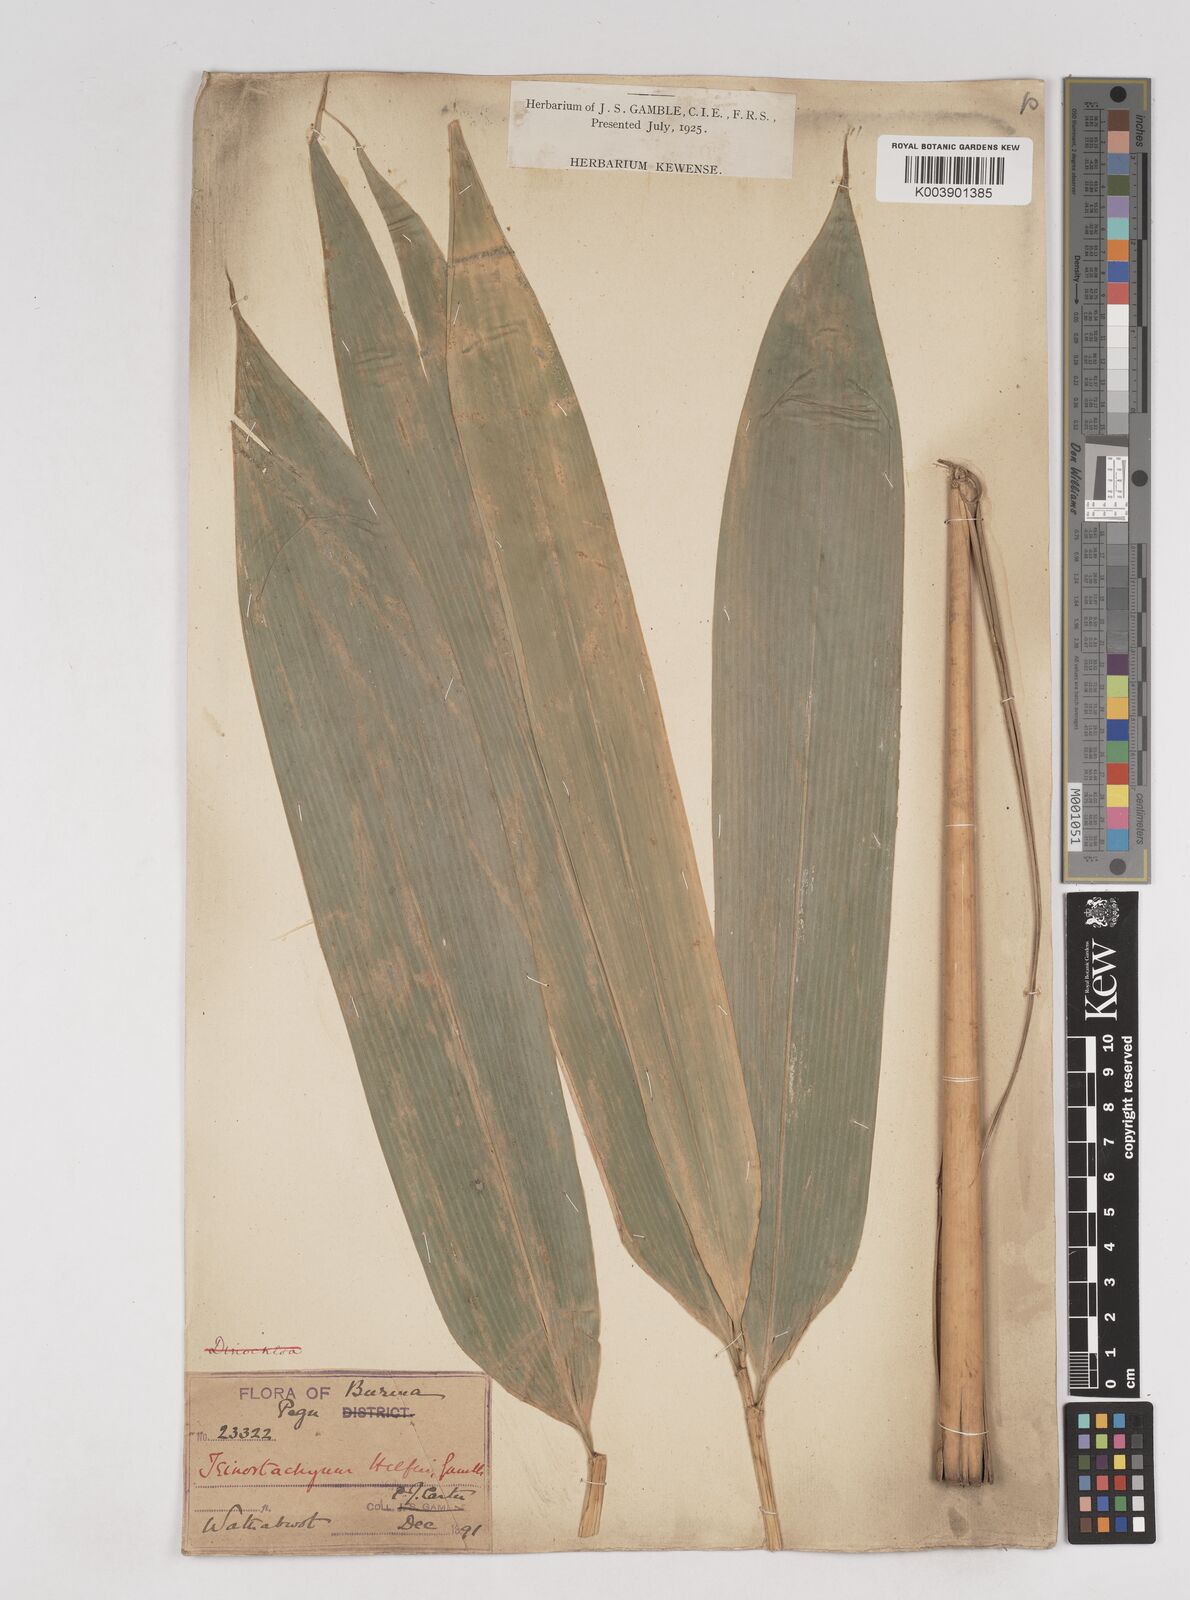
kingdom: Plantae
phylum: Tracheophyta
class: Liliopsida
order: Poales
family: Poaceae
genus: Schizostachyum
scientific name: Schizostachyum helferi
